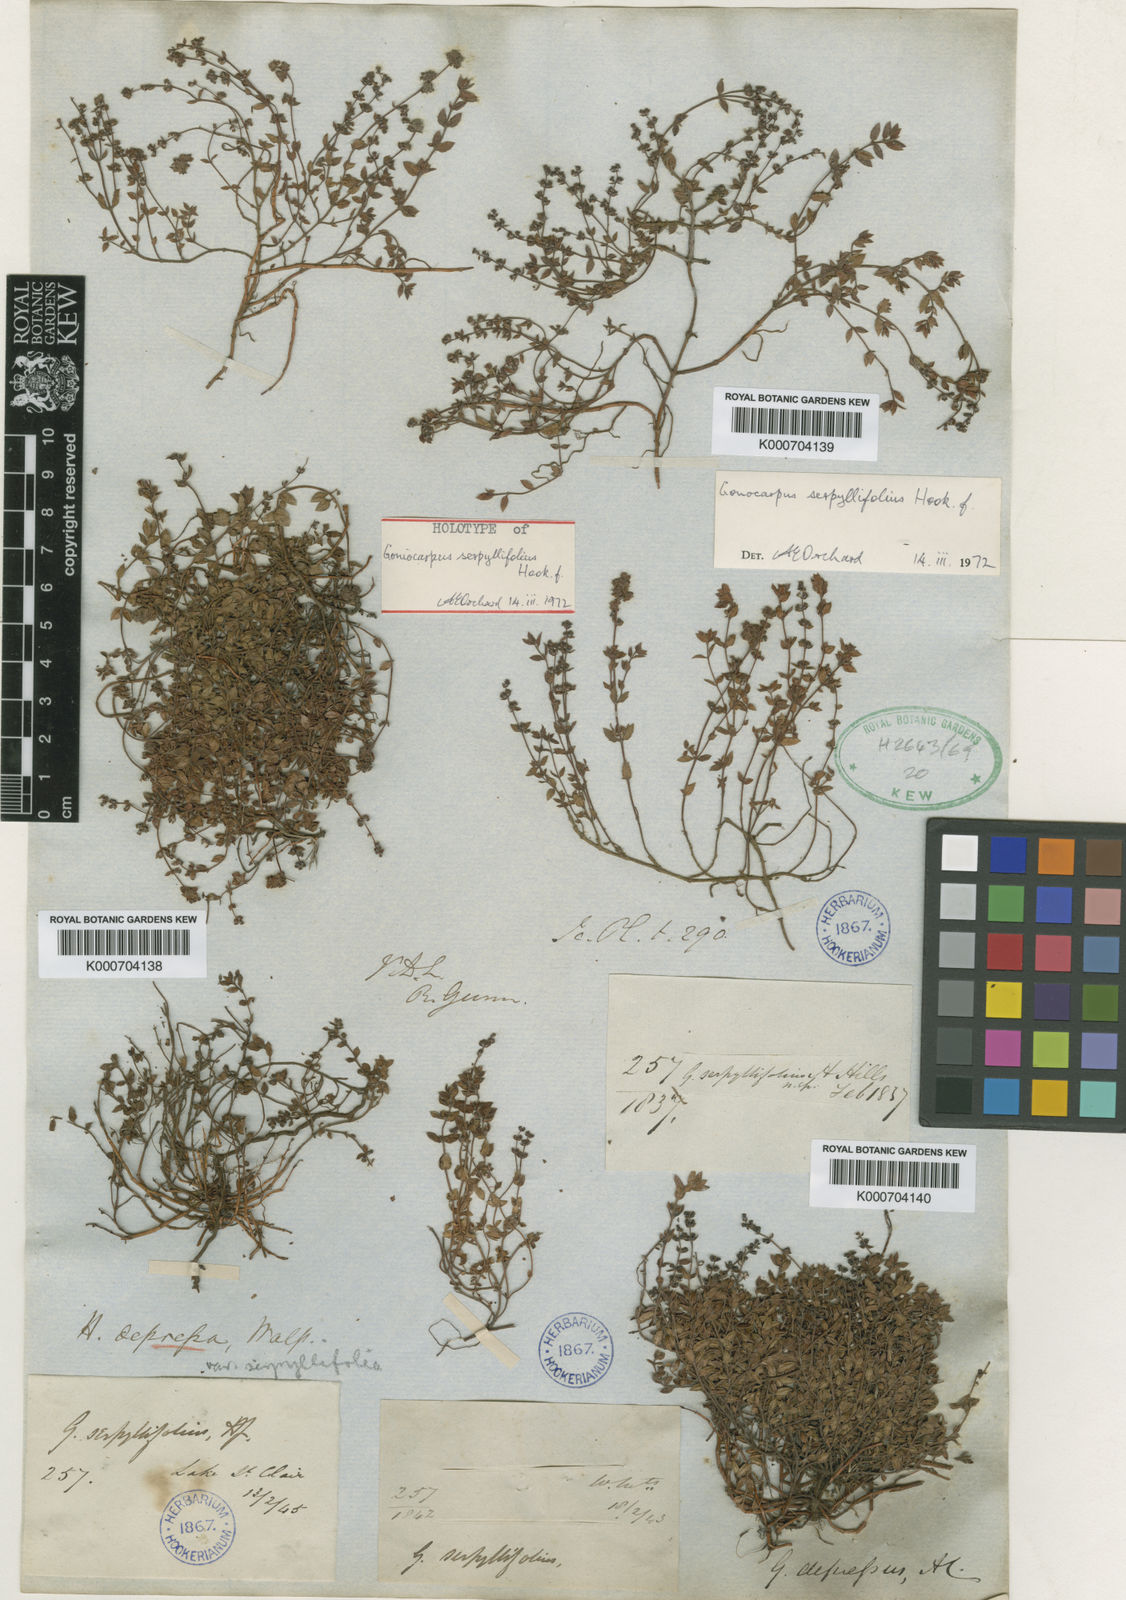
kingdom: Plantae
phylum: Tracheophyta
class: Magnoliopsida
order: Saxifragales
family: Haloragaceae
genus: Gonocarpus
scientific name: Gonocarpus serpyllifolius
